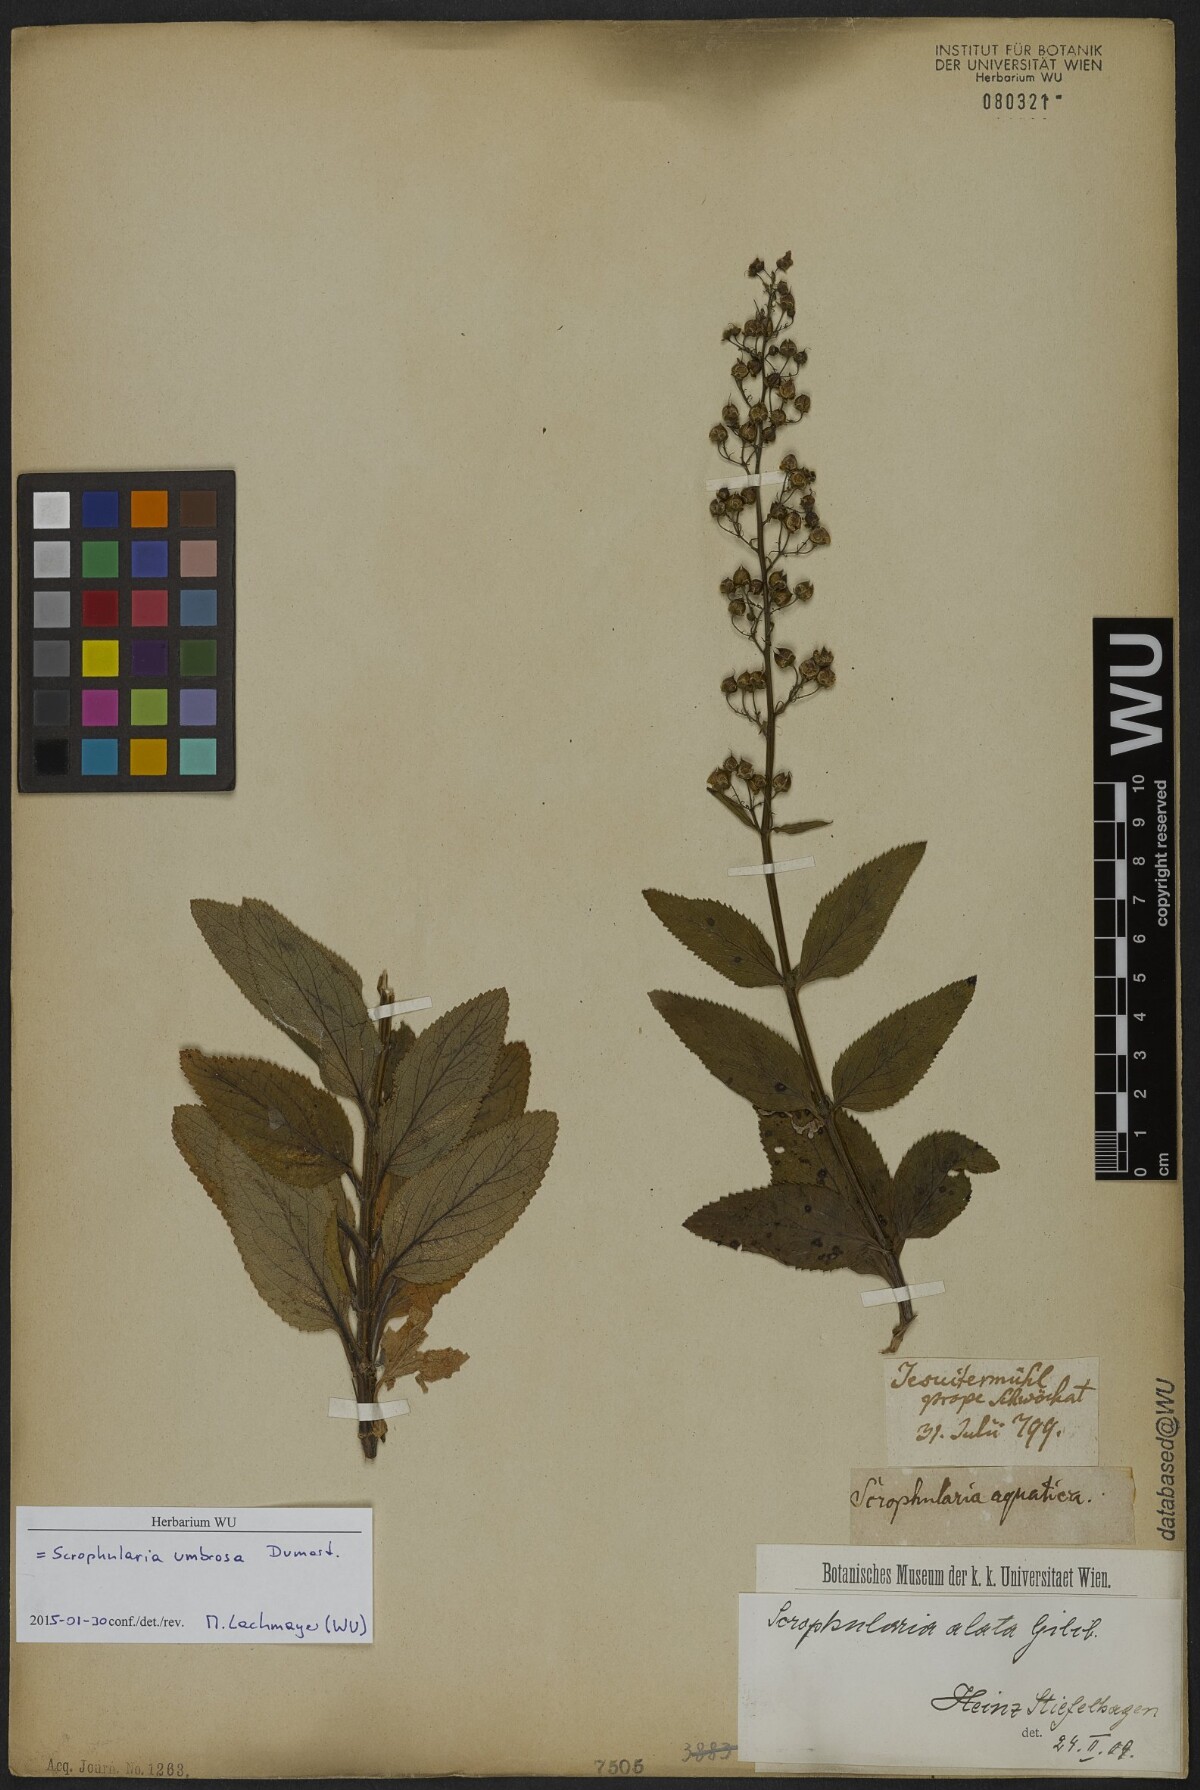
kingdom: Plantae
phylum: Tracheophyta
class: Magnoliopsida
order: Lamiales
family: Scrophulariaceae
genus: Scrophularia
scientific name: Scrophularia umbrosa
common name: Green figwort
